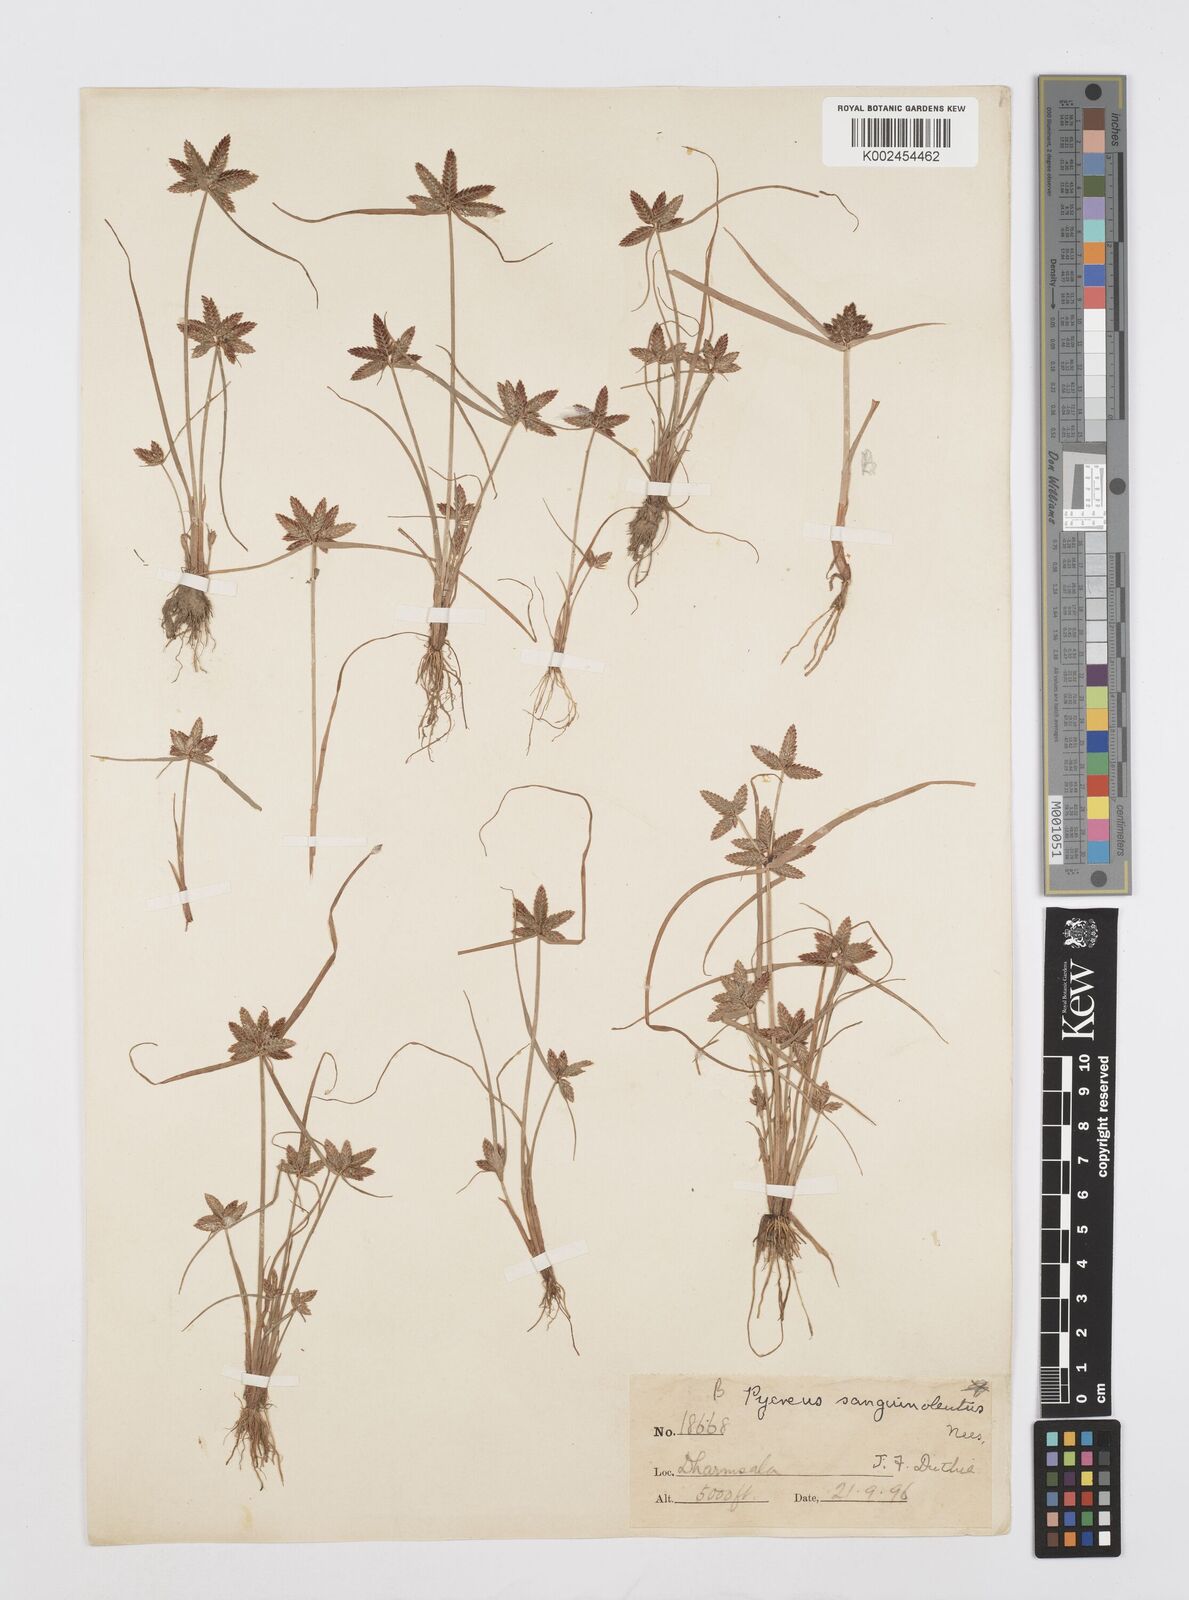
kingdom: Plantae
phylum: Tracheophyta
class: Liliopsida
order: Poales
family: Cyperaceae
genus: Cyperus
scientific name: Cyperus diaphanus
